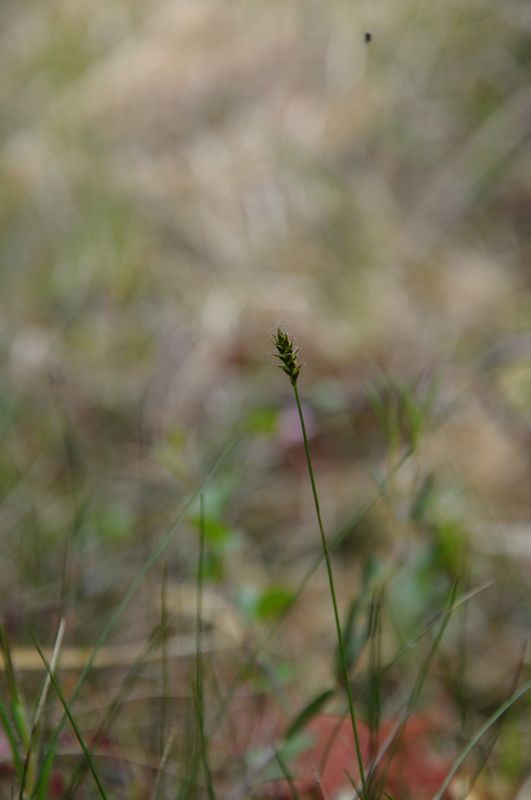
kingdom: Plantae
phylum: Tracheophyta
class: Liliopsida
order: Poales
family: Cyperaceae
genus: Carex
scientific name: Carex dioica
